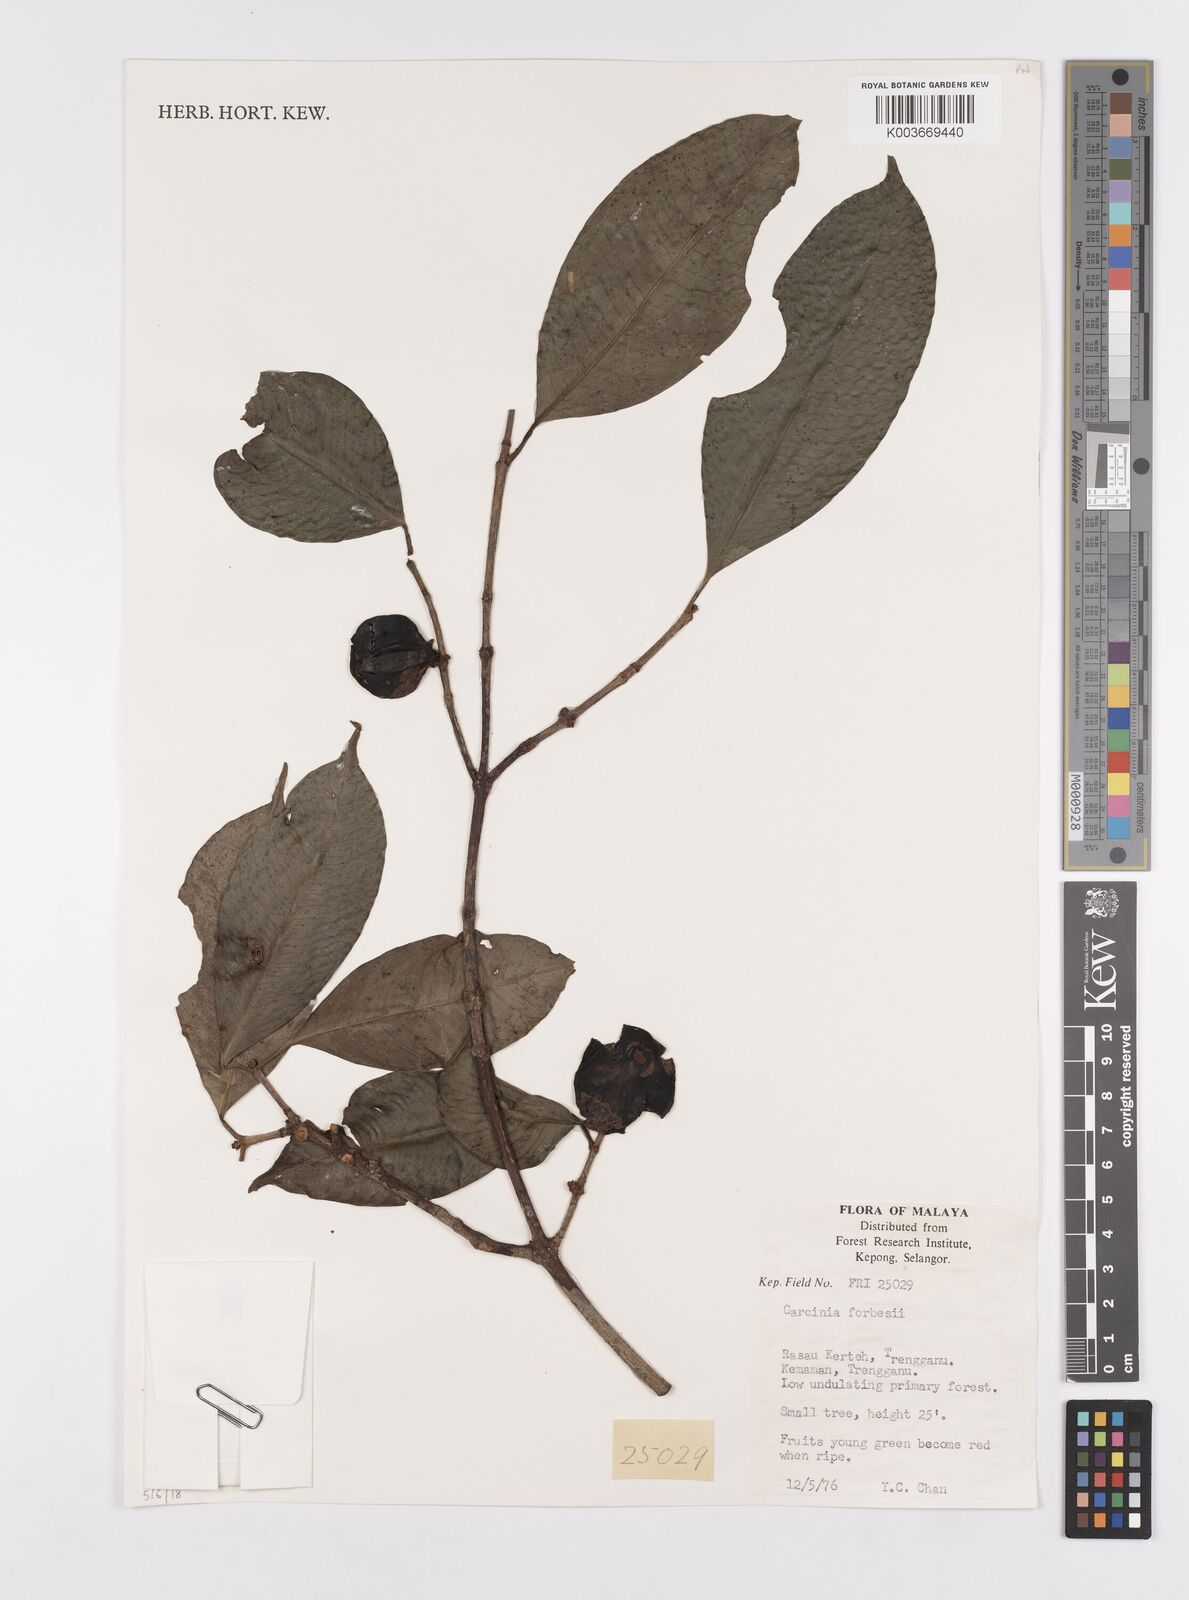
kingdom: Plantae
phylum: Tracheophyta
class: Magnoliopsida
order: Malpighiales
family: Clusiaceae
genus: Garcinia
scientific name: Garcinia forbesii
